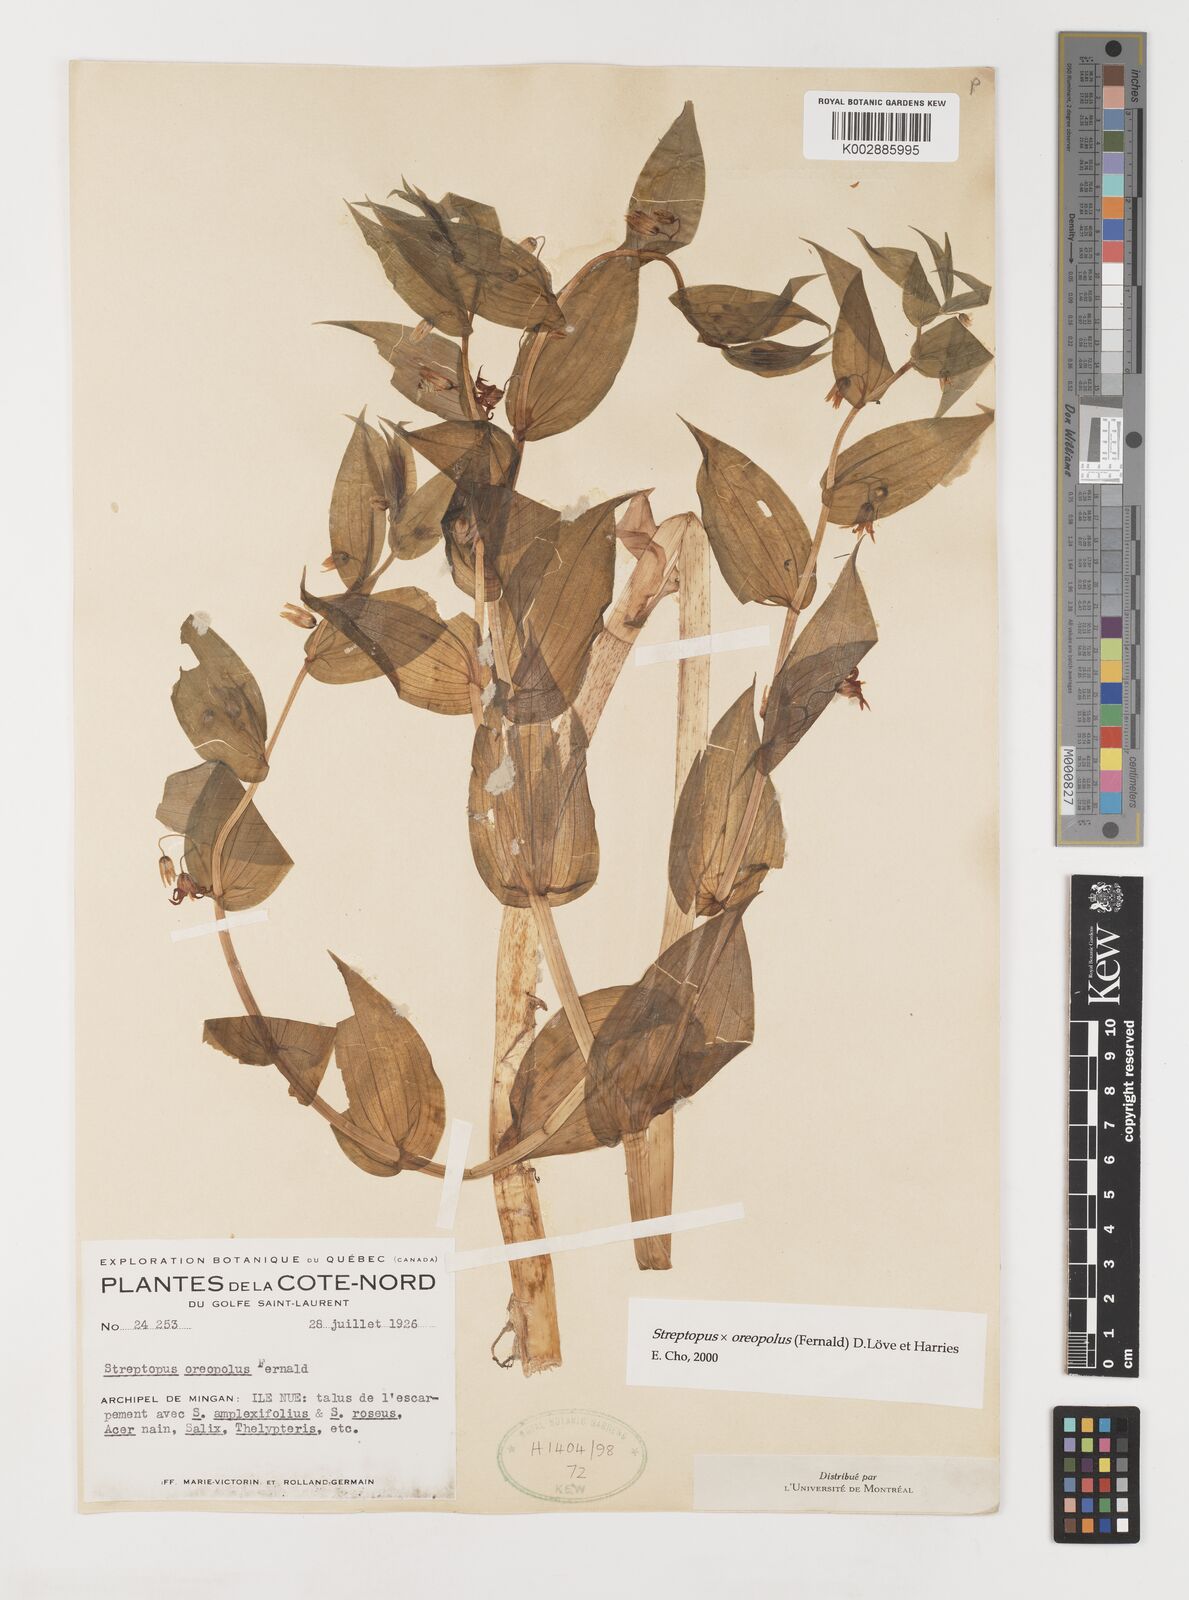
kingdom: Plantae
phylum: Tracheophyta
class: Liliopsida
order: Liliales
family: Liliaceae
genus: Streptopus
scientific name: Streptopus oreopolus
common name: Hybrid twisted-stalk
